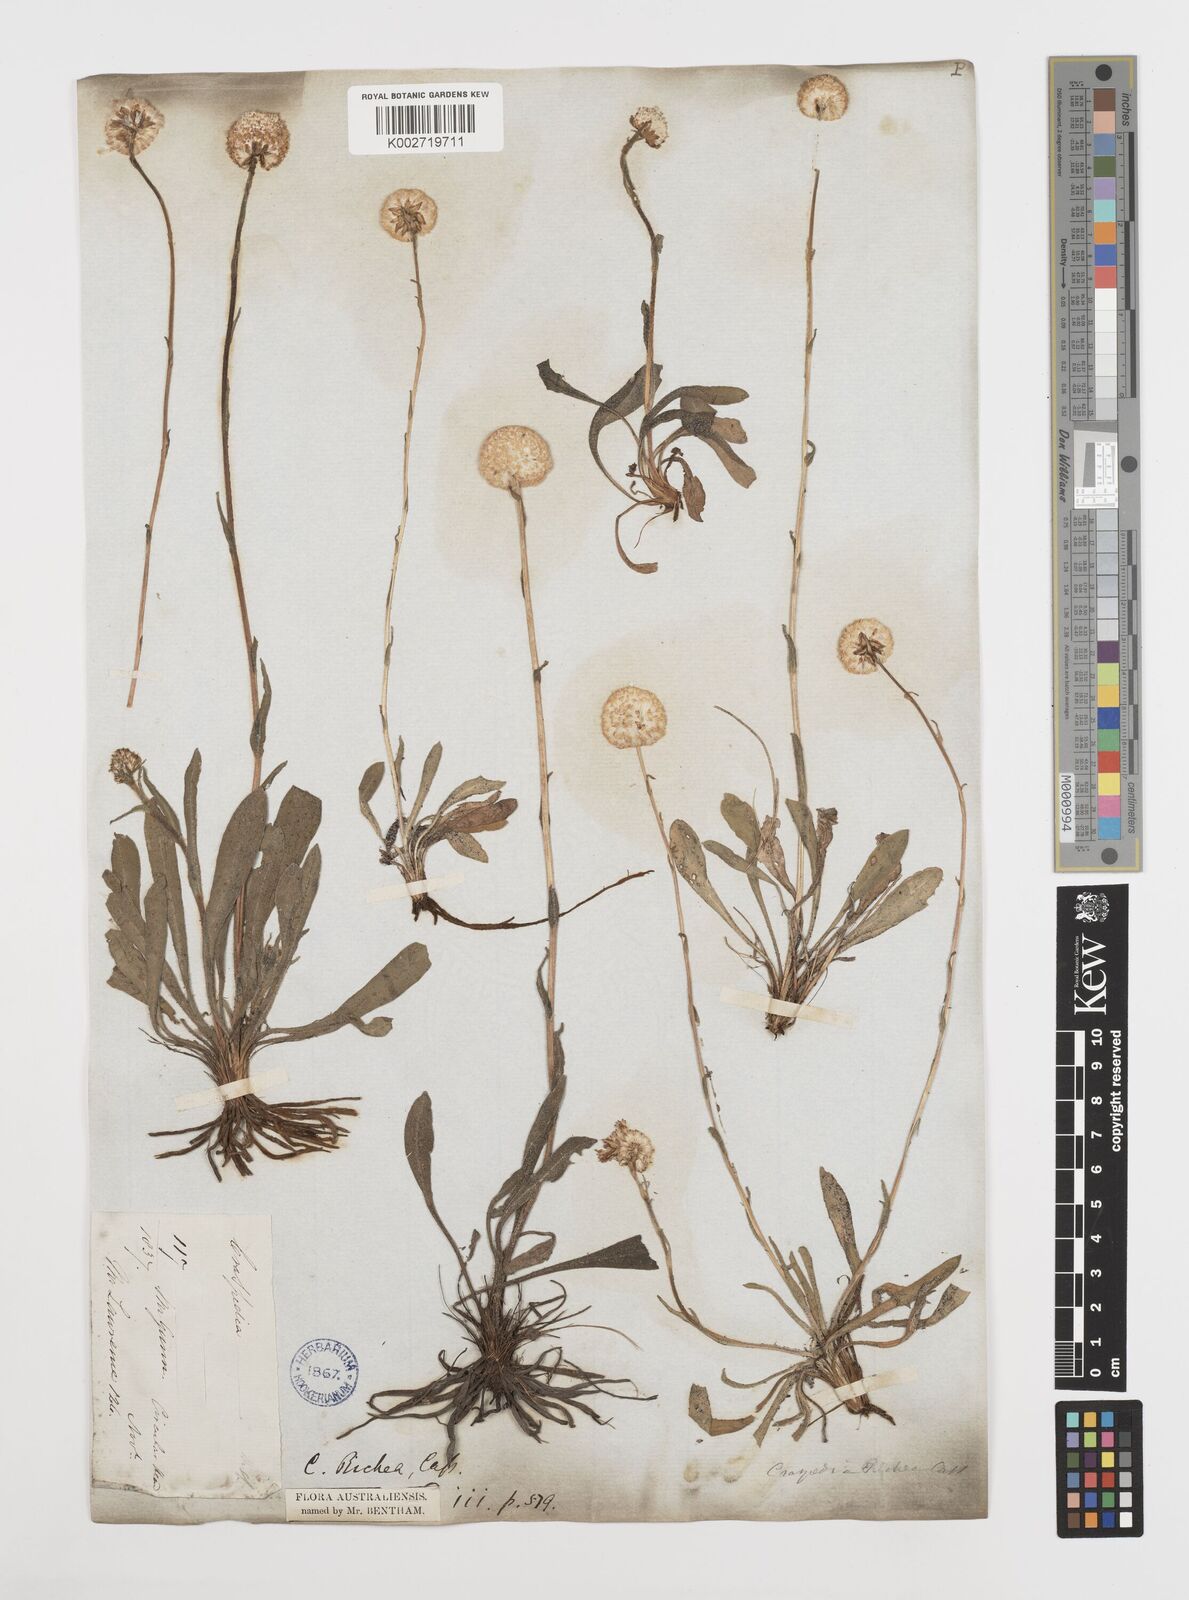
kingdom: Plantae
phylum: Tracheophyta
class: Magnoliopsida
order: Asterales
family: Asteraceae
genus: Craspedia
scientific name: Craspedia glauca
